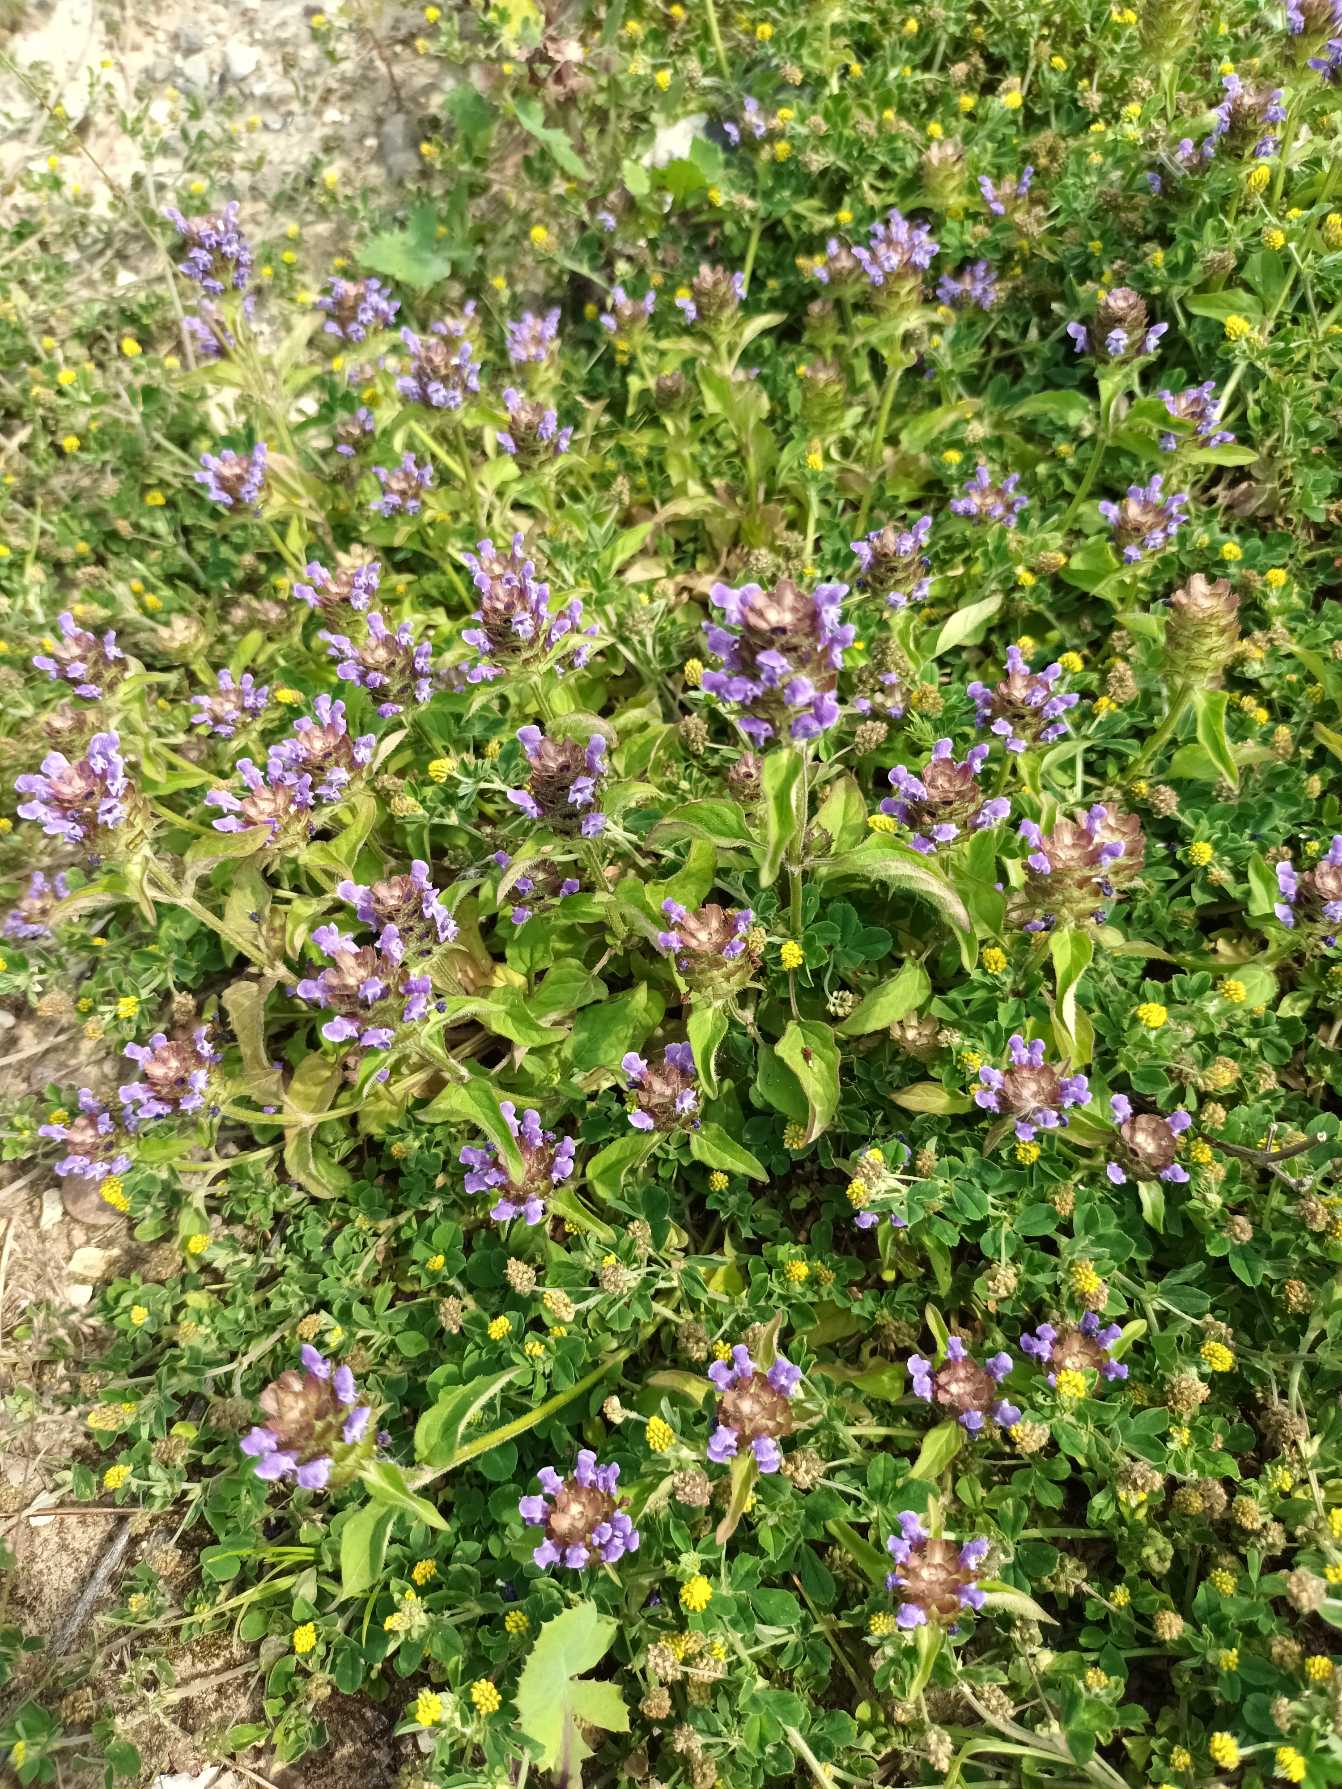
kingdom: Plantae
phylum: Tracheophyta
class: Magnoliopsida
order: Lamiales
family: Lamiaceae
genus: Prunella
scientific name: Prunella vulgaris
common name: Almindelig brunelle
